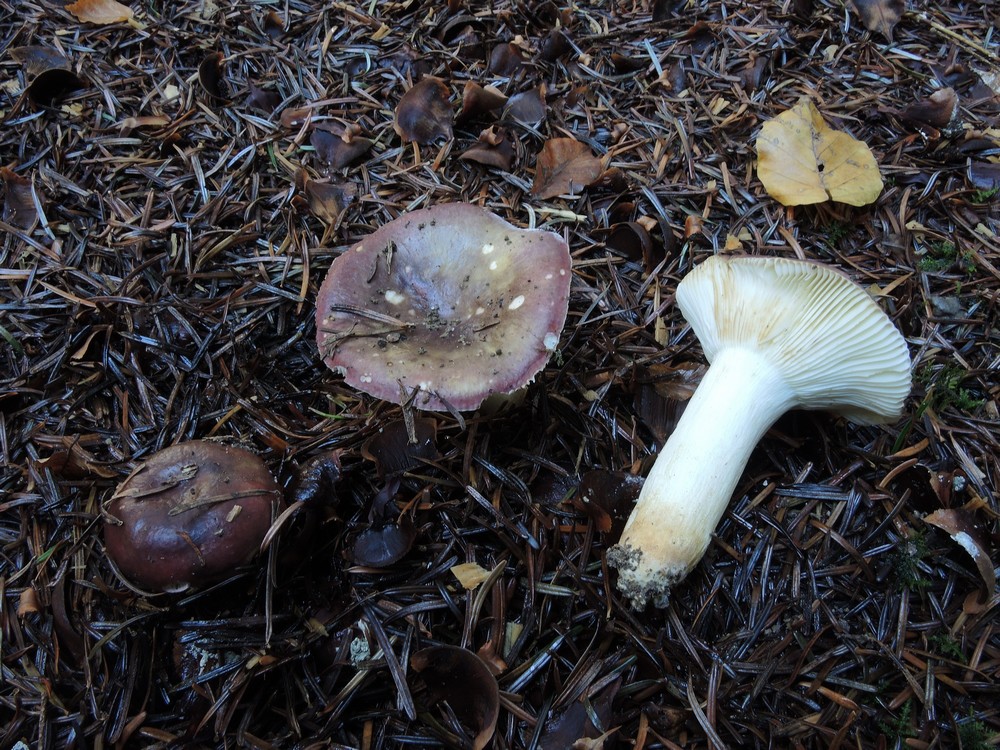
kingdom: Fungi
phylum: Basidiomycota
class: Agaricomycetes
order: Russulales
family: Russulaceae
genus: Russula
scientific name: Russula viscida
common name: knippe-skørhat
